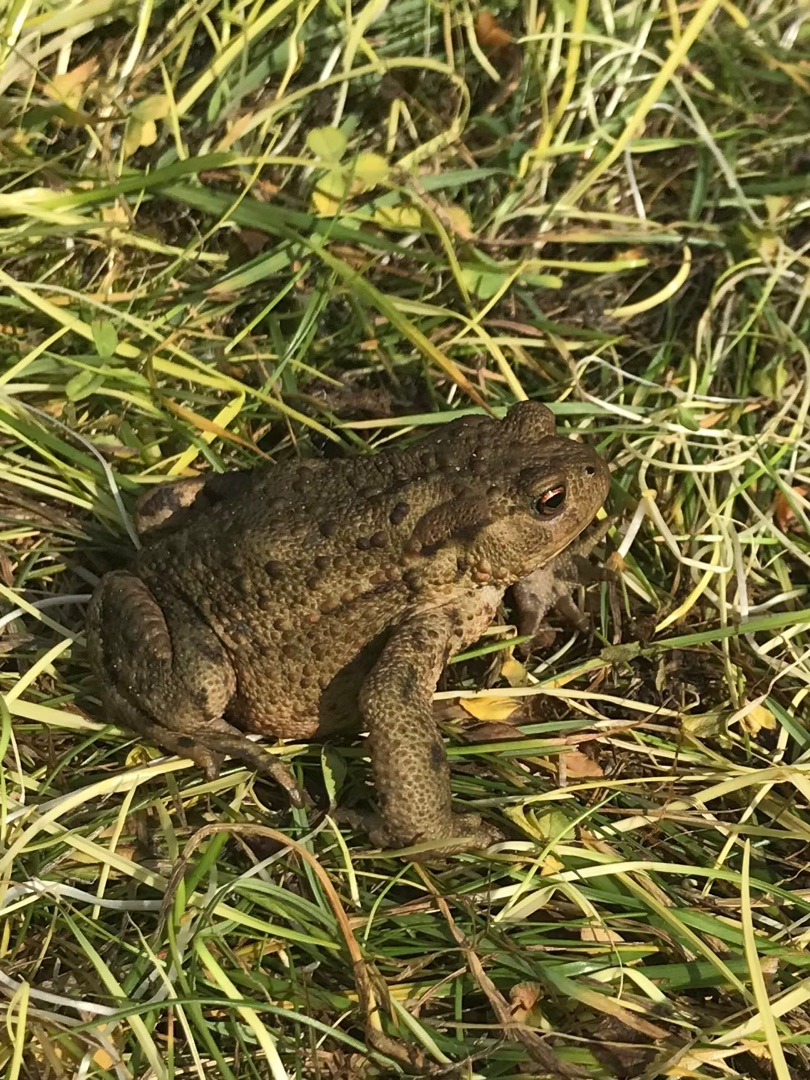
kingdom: Animalia
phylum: Chordata
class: Amphibia
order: Anura
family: Bufonidae
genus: Bufo
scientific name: Bufo bufo
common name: Skrubtudse
